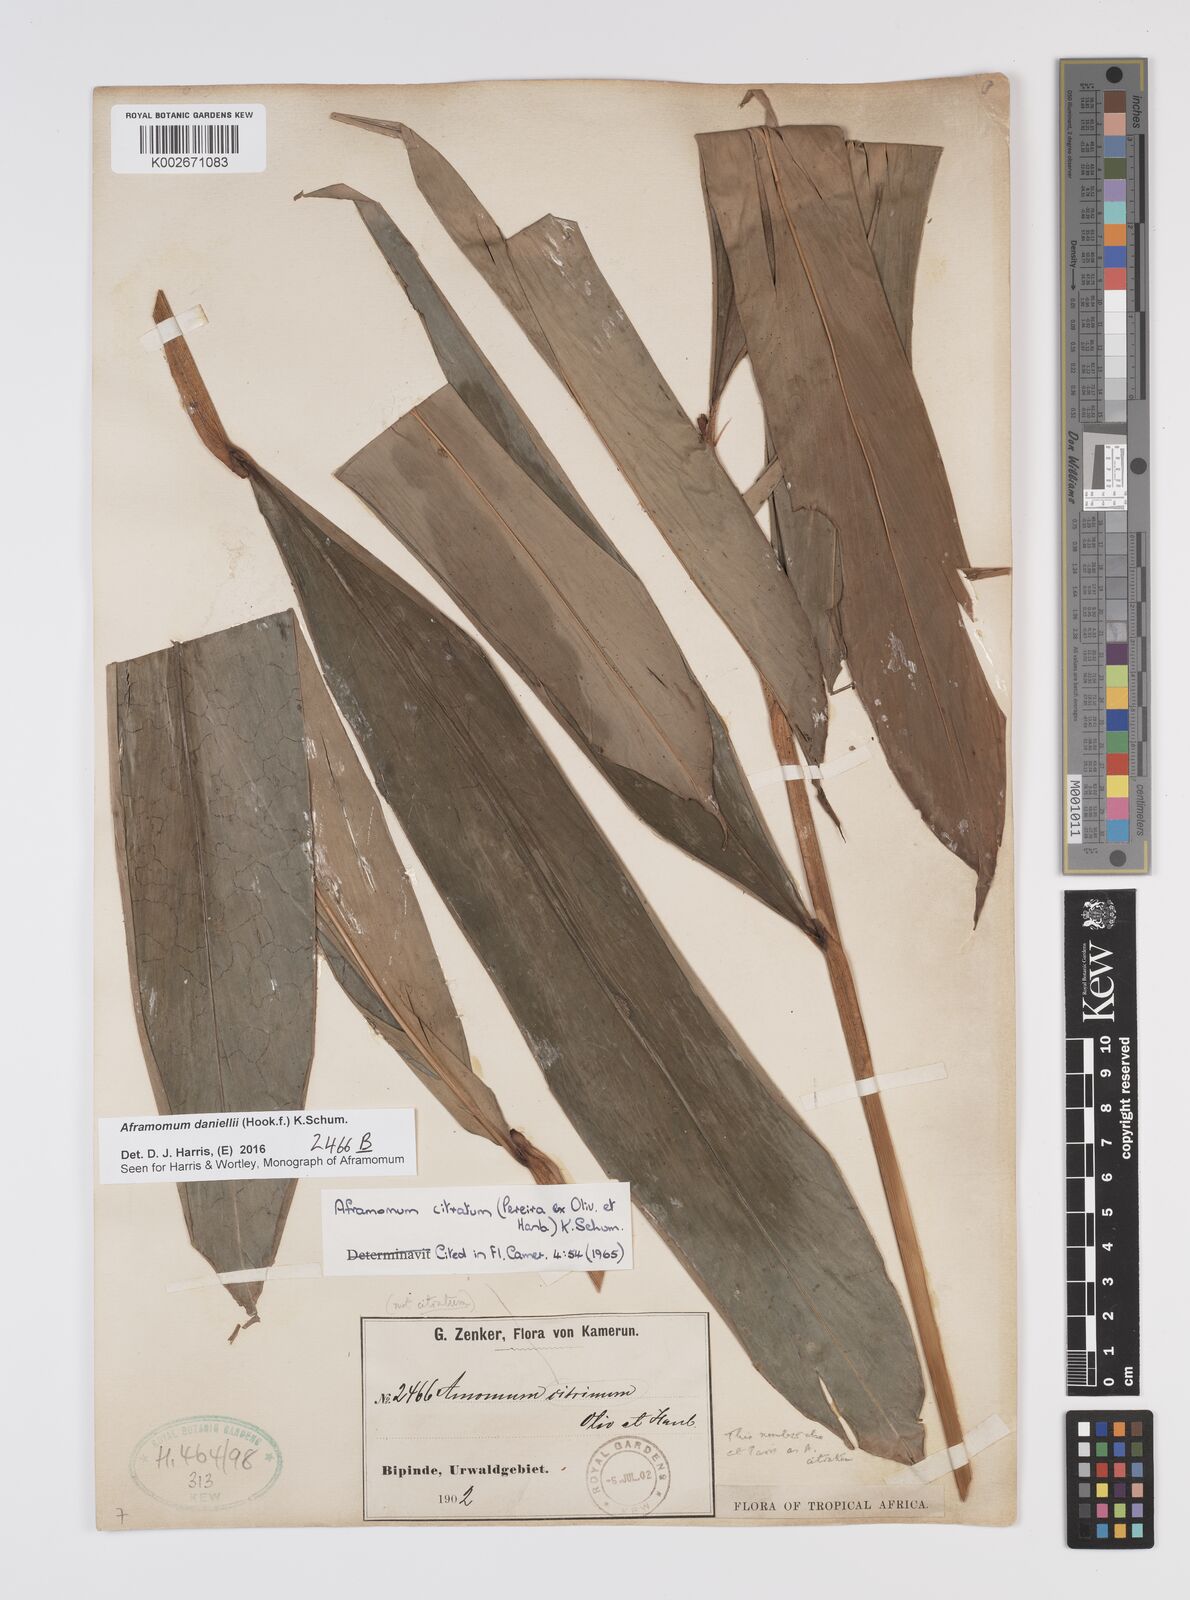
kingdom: Plantae
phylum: Tracheophyta
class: Liliopsida
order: Zingiberales
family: Zingiberaceae
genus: Aframomum
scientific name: Aframomum daniellii
